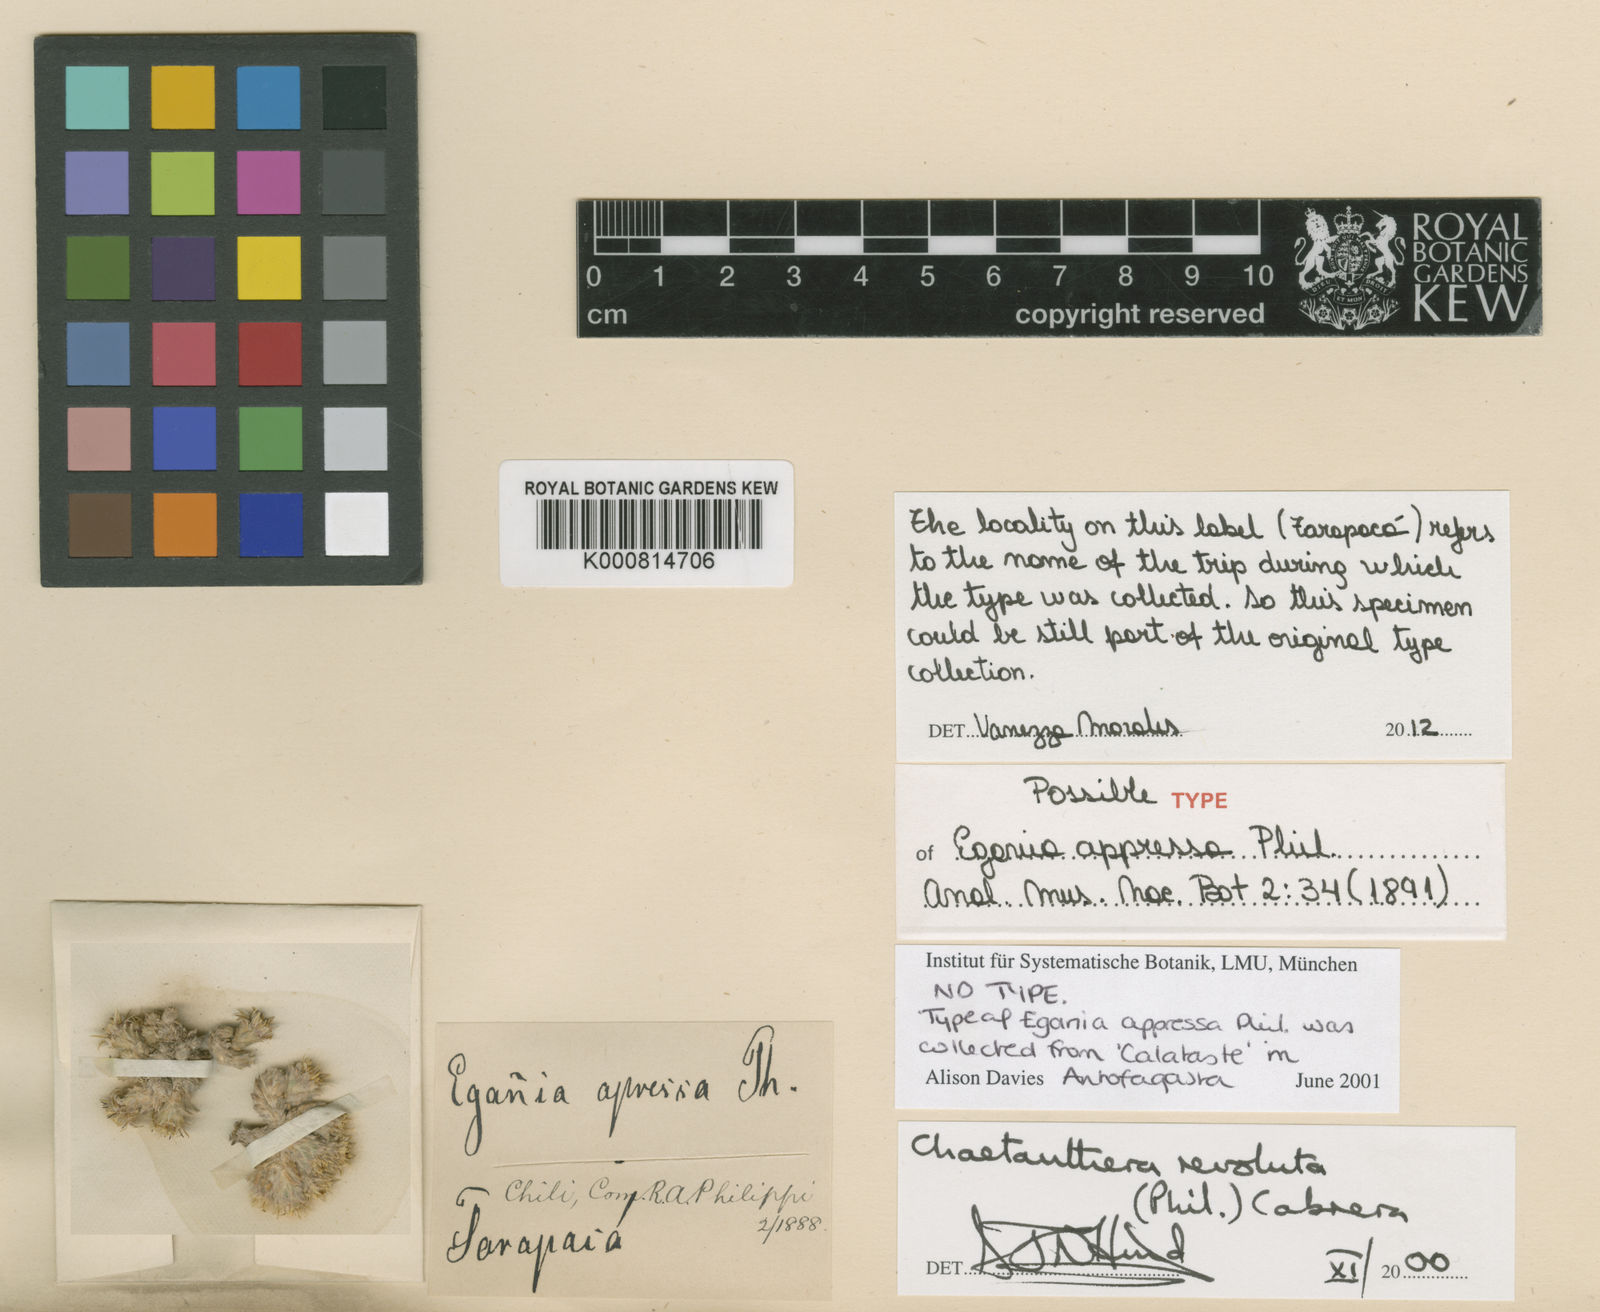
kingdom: Plantae
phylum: Tracheophyta
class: Magnoliopsida
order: Asterales
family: Asteraceae
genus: Oriastrum
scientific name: Oriastrum revolutum
